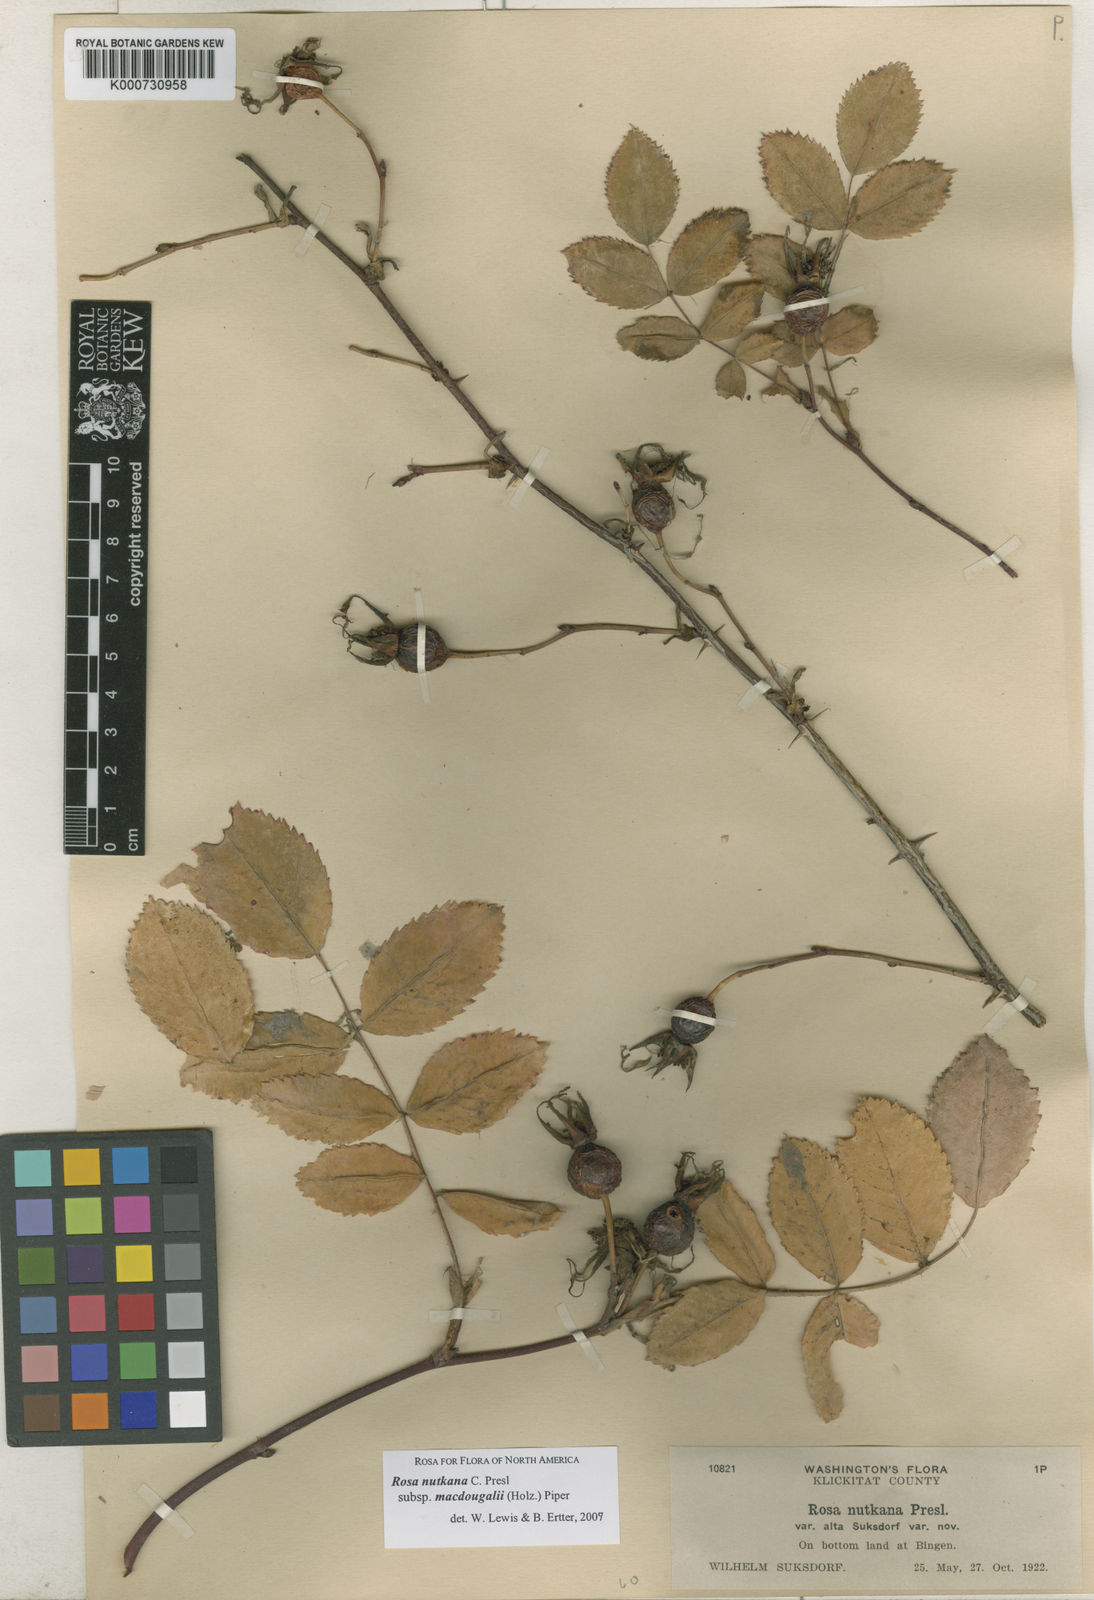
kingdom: Plantae
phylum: Tracheophyta
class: Magnoliopsida
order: Rosales
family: Rosaceae
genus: Rosa
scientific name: Rosa nutkana
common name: Nootka rose
